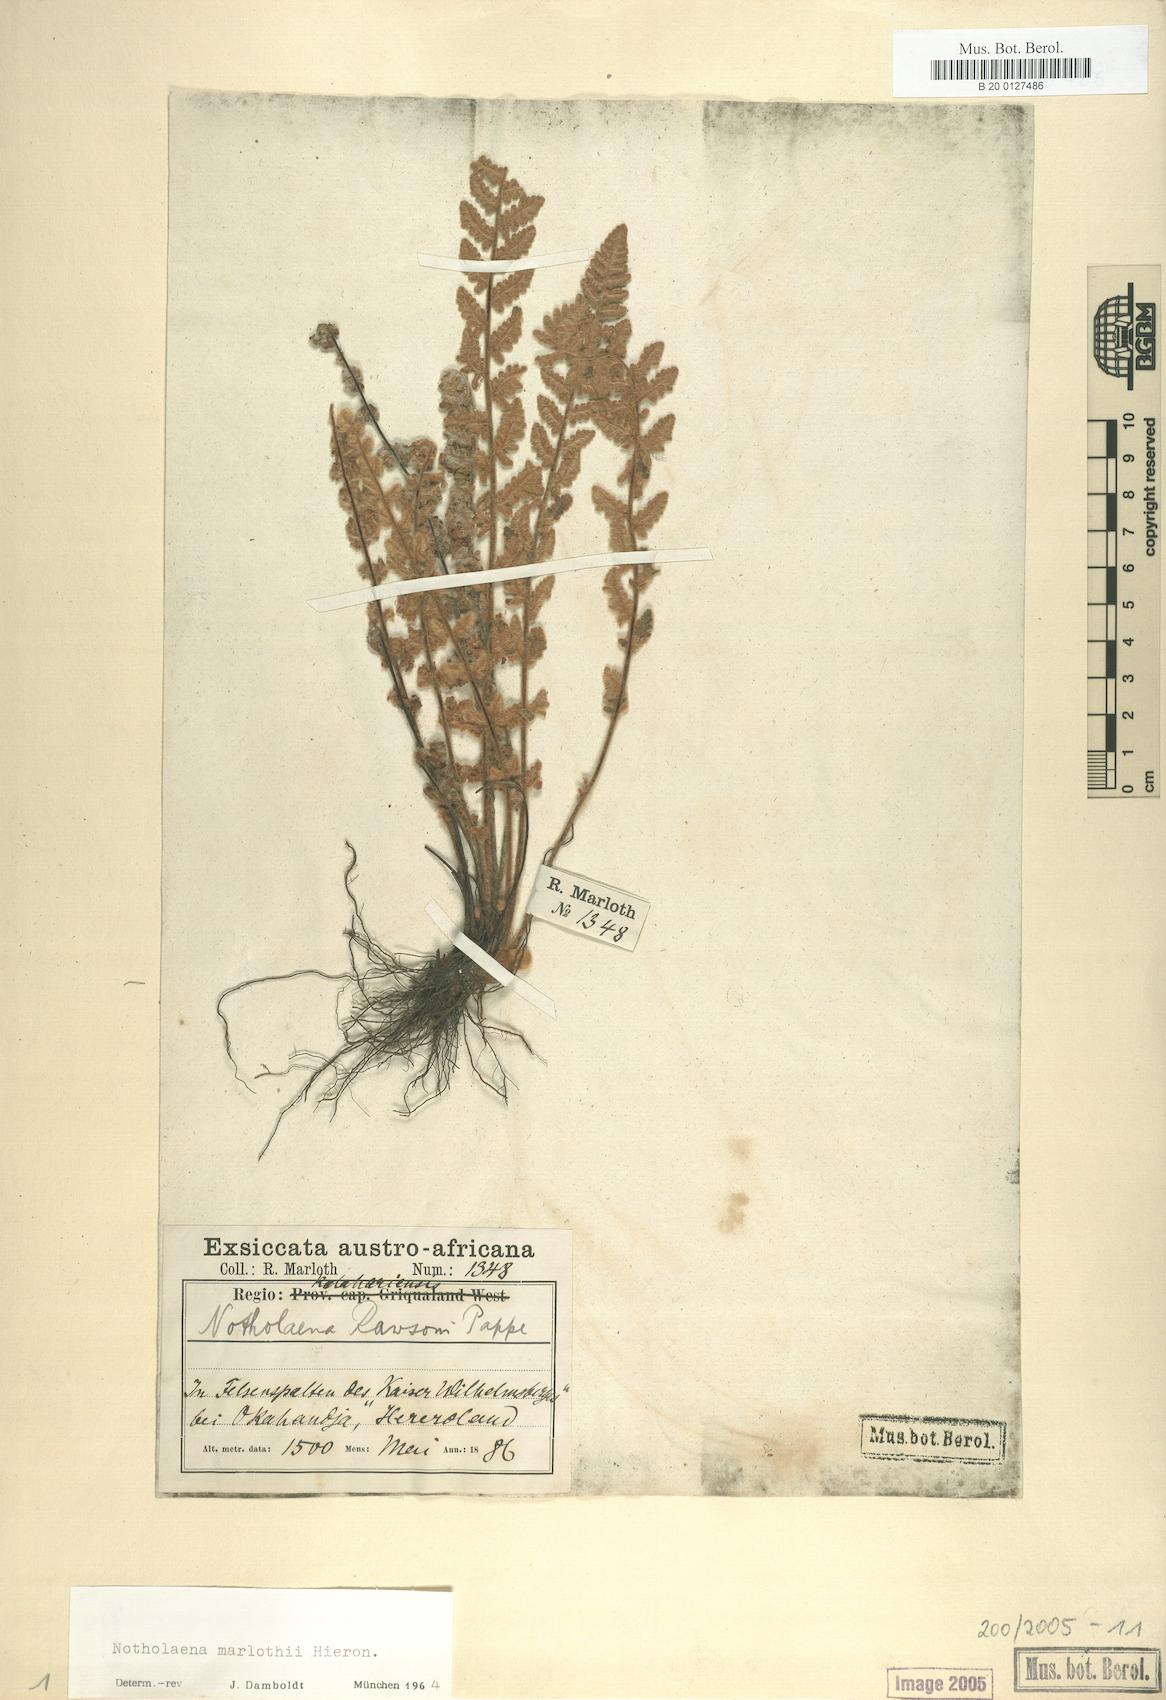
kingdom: Plantae
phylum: Tracheophyta
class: Polypodiopsida
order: Polypodiales
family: Pteridaceae
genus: Cheilanthes
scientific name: Cheilanthes marlothii
